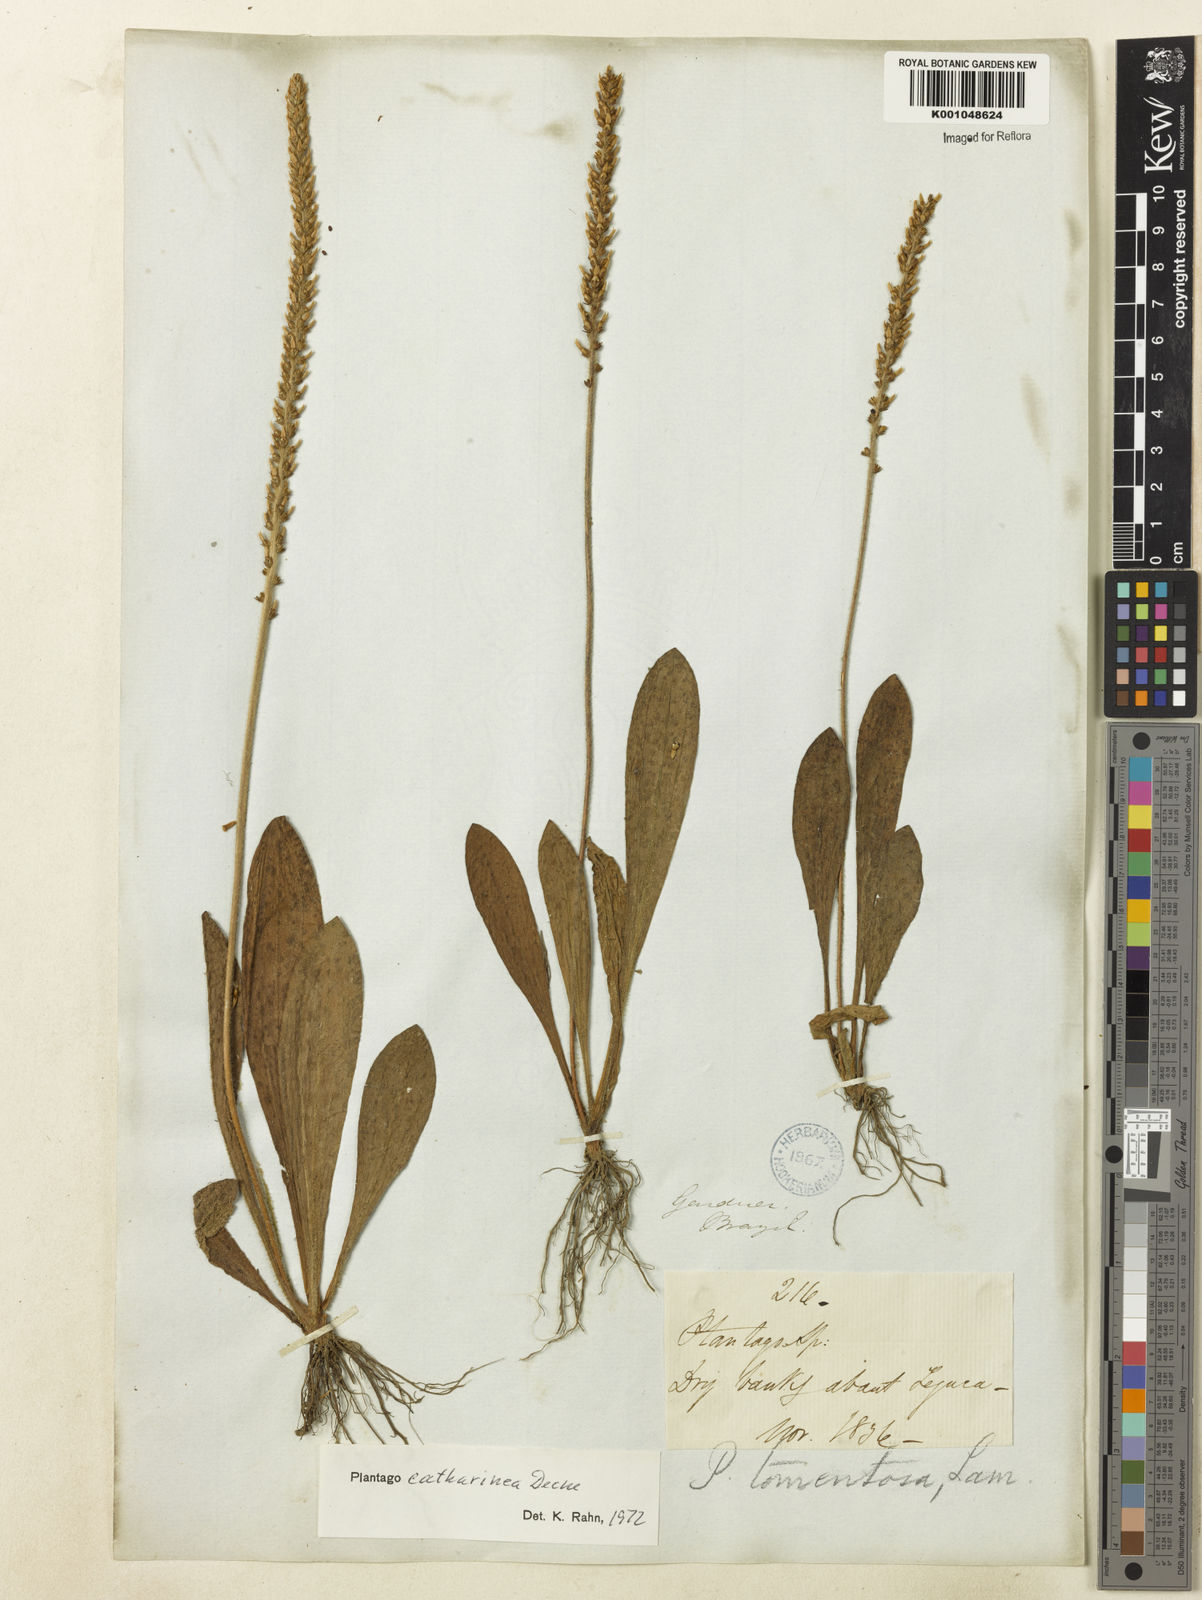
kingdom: Plantae
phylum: Tracheophyta
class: Magnoliopsida
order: Lamiales
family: Plantaginaceae
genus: Plantago
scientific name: Plantago
